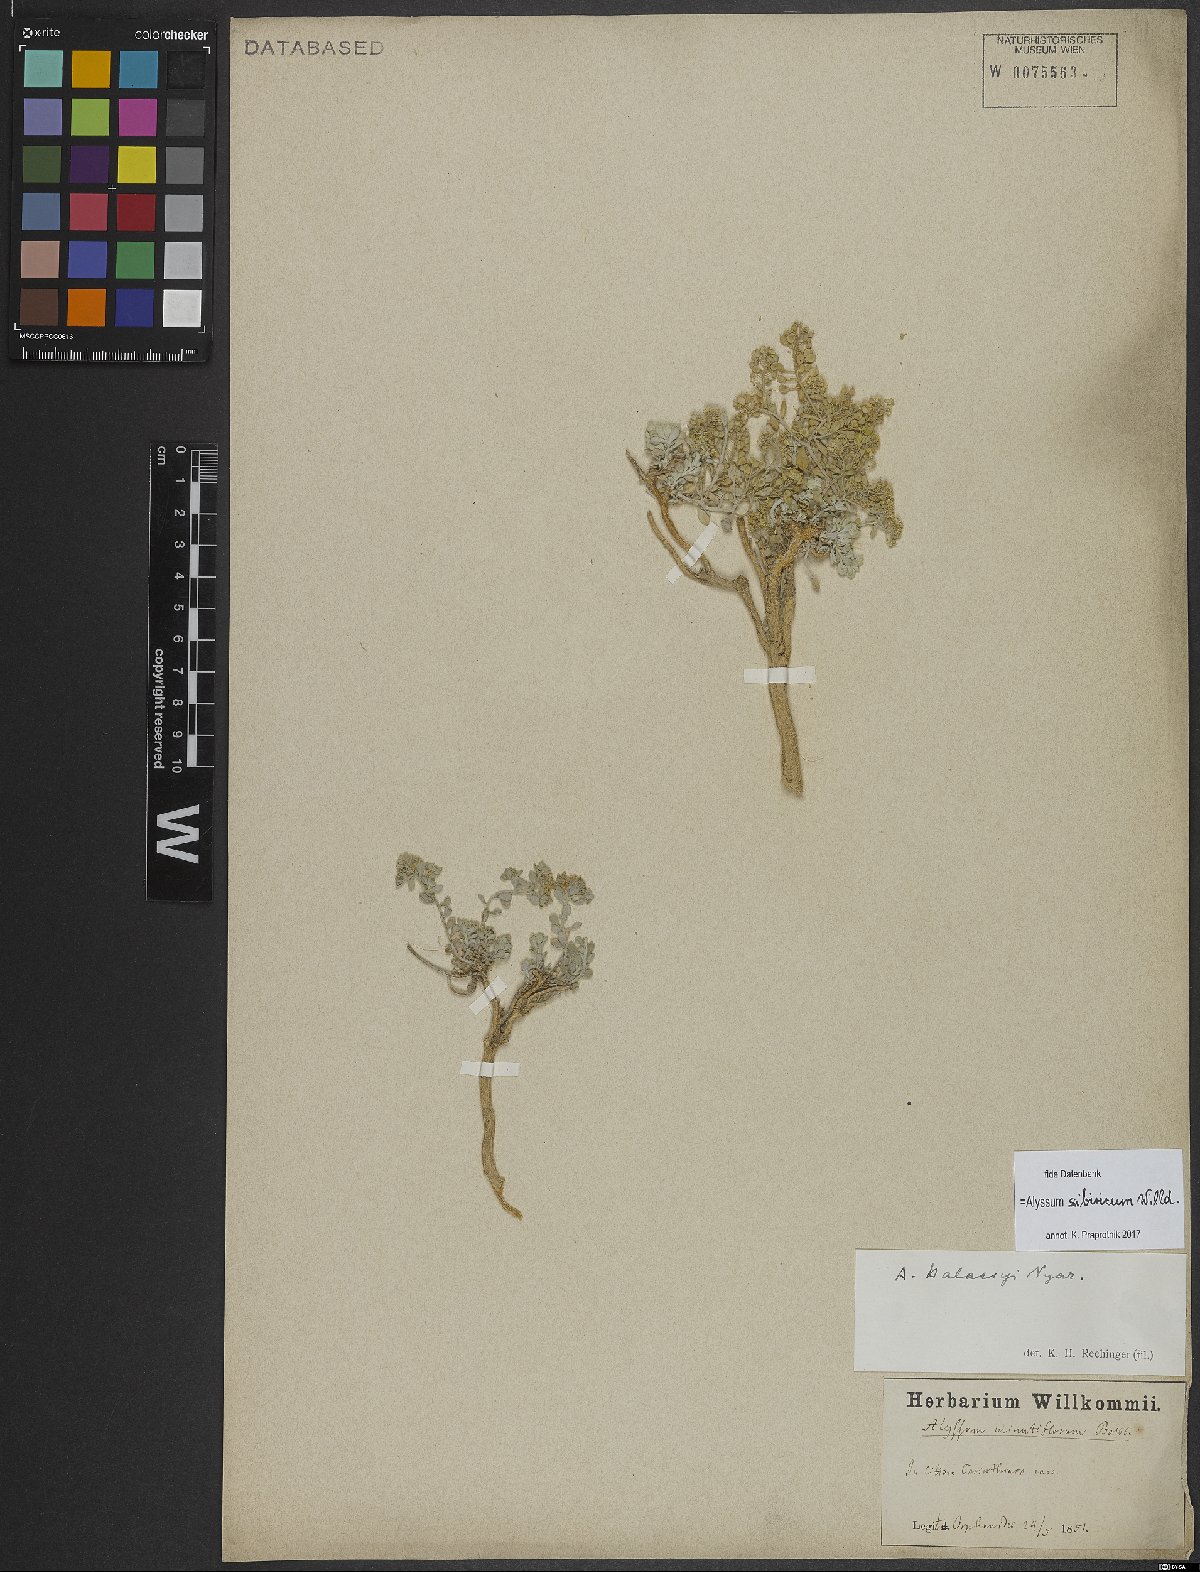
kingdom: Plantae
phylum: Tracheophyta
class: Magnoliopsida
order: Brassicales
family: Brassicaceae
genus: Odontarrhena
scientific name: Odontarrhena sibirica
